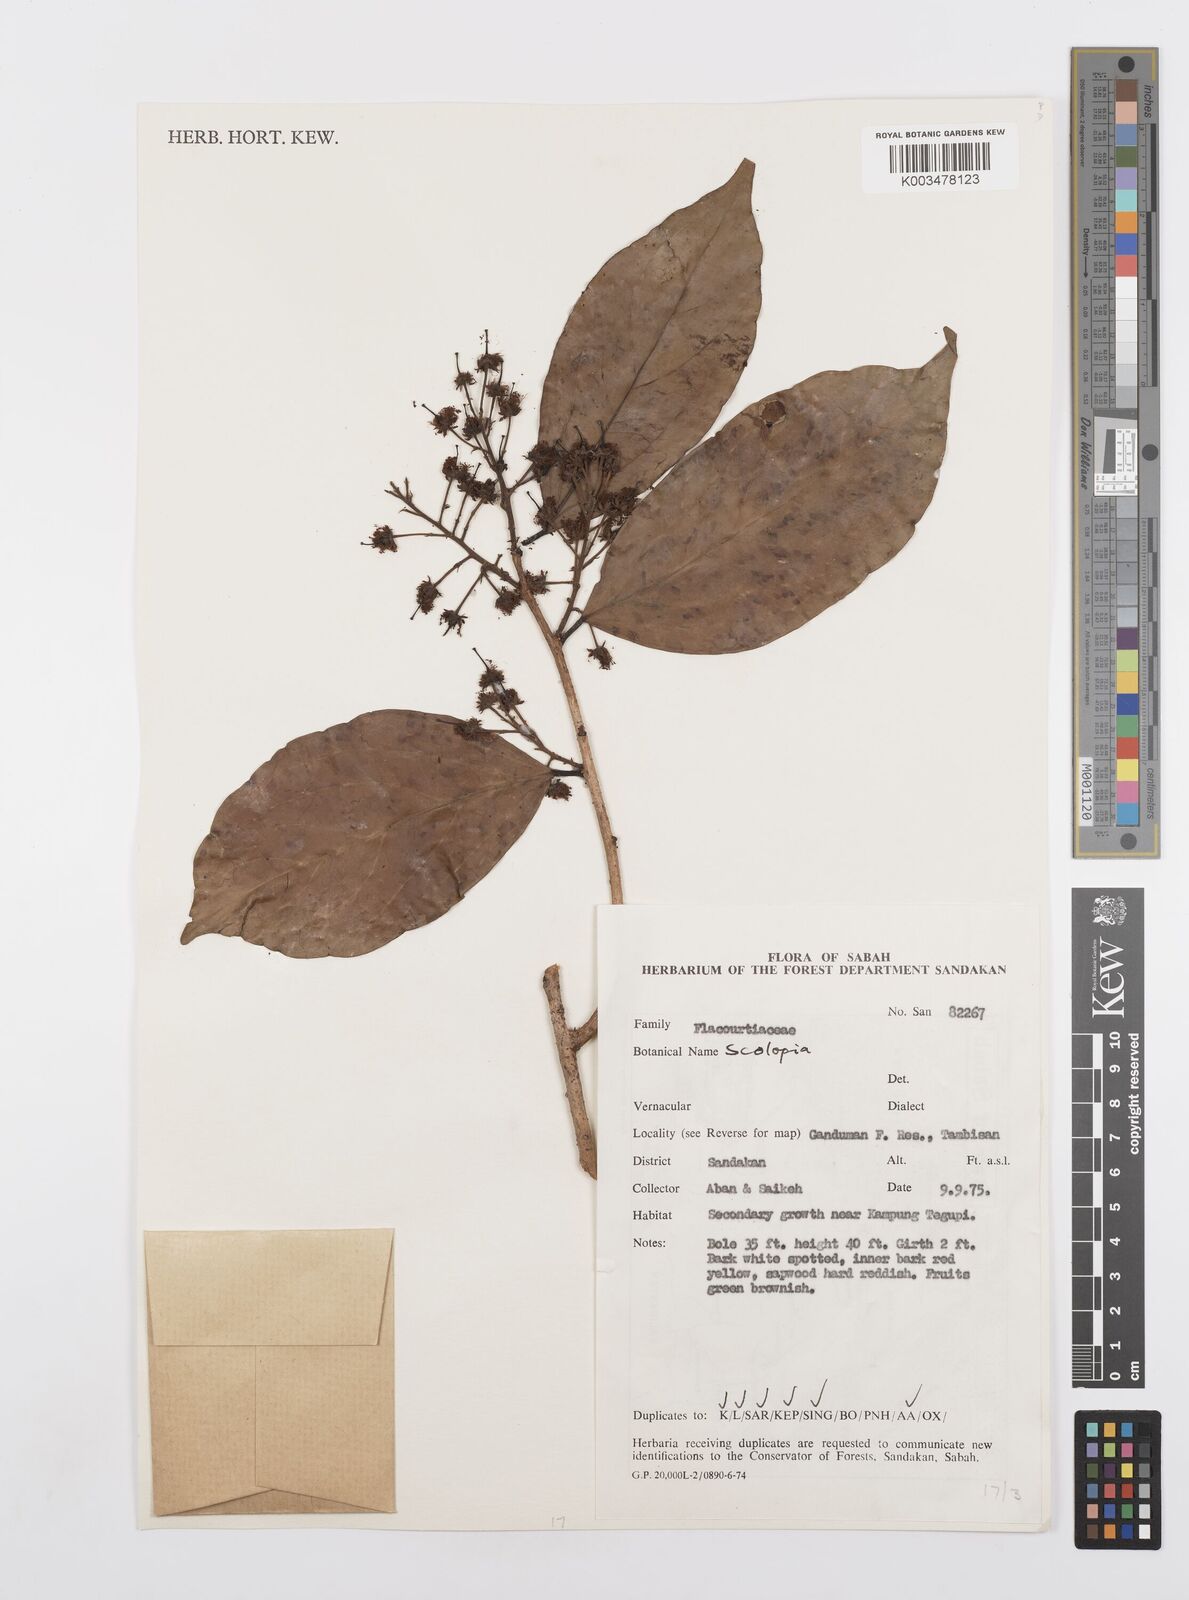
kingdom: Plantae
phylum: Tracheophyta
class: Magnoliopsida
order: Malpighiales
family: Salicaceae
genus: Scolopia
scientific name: Scolopia
